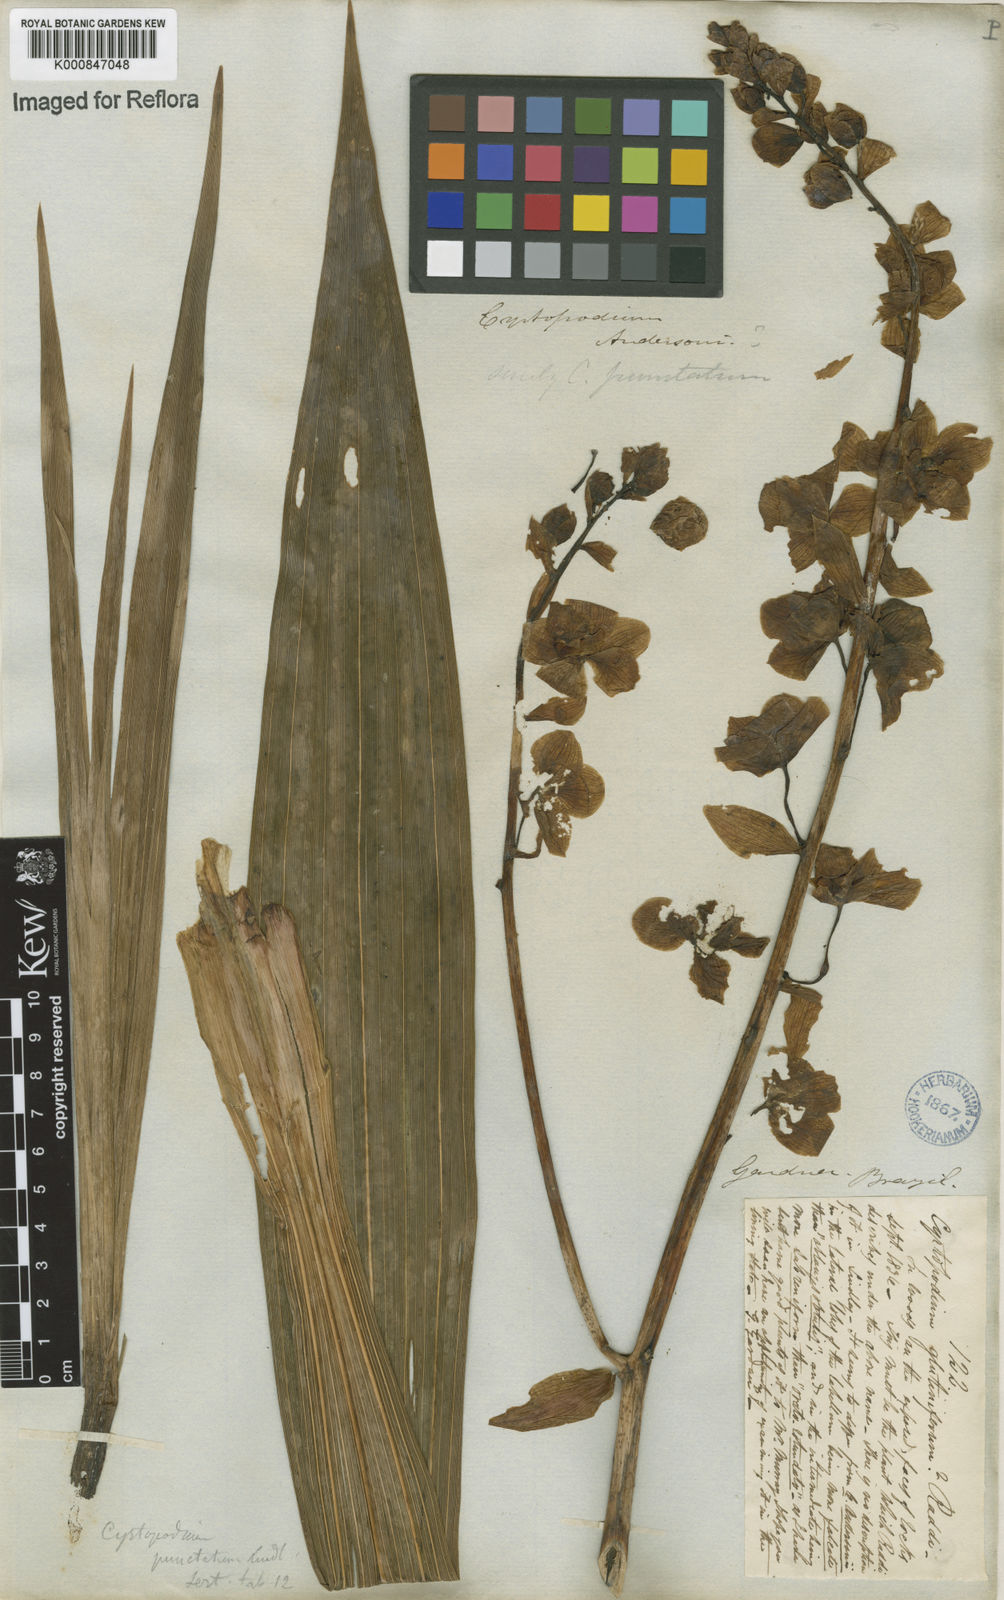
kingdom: Plantae
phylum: Tracheophyta
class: Liliopsida
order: Asparagales
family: Orchidaceae
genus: Cyrtopodium
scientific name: Cyrtopodium andersonii
